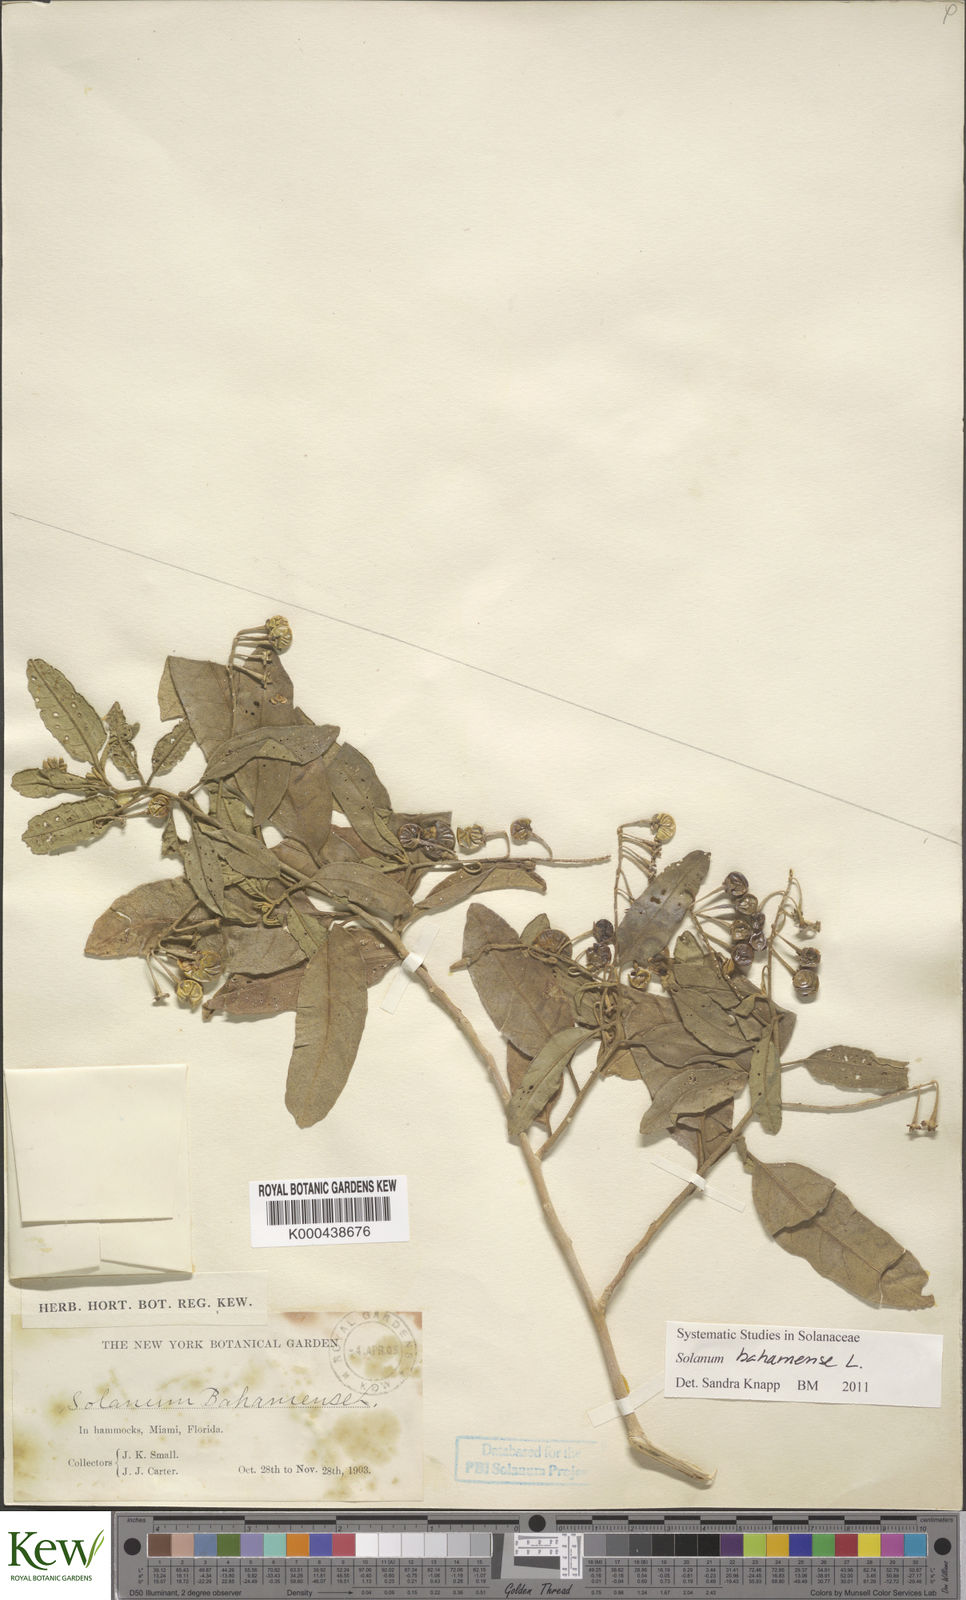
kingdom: Plantae
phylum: Tracheophyta
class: Magnoliopsida
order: Solanales
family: Solanaceae
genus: Solanum
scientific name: Solanum bahamense
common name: Canker-berry
